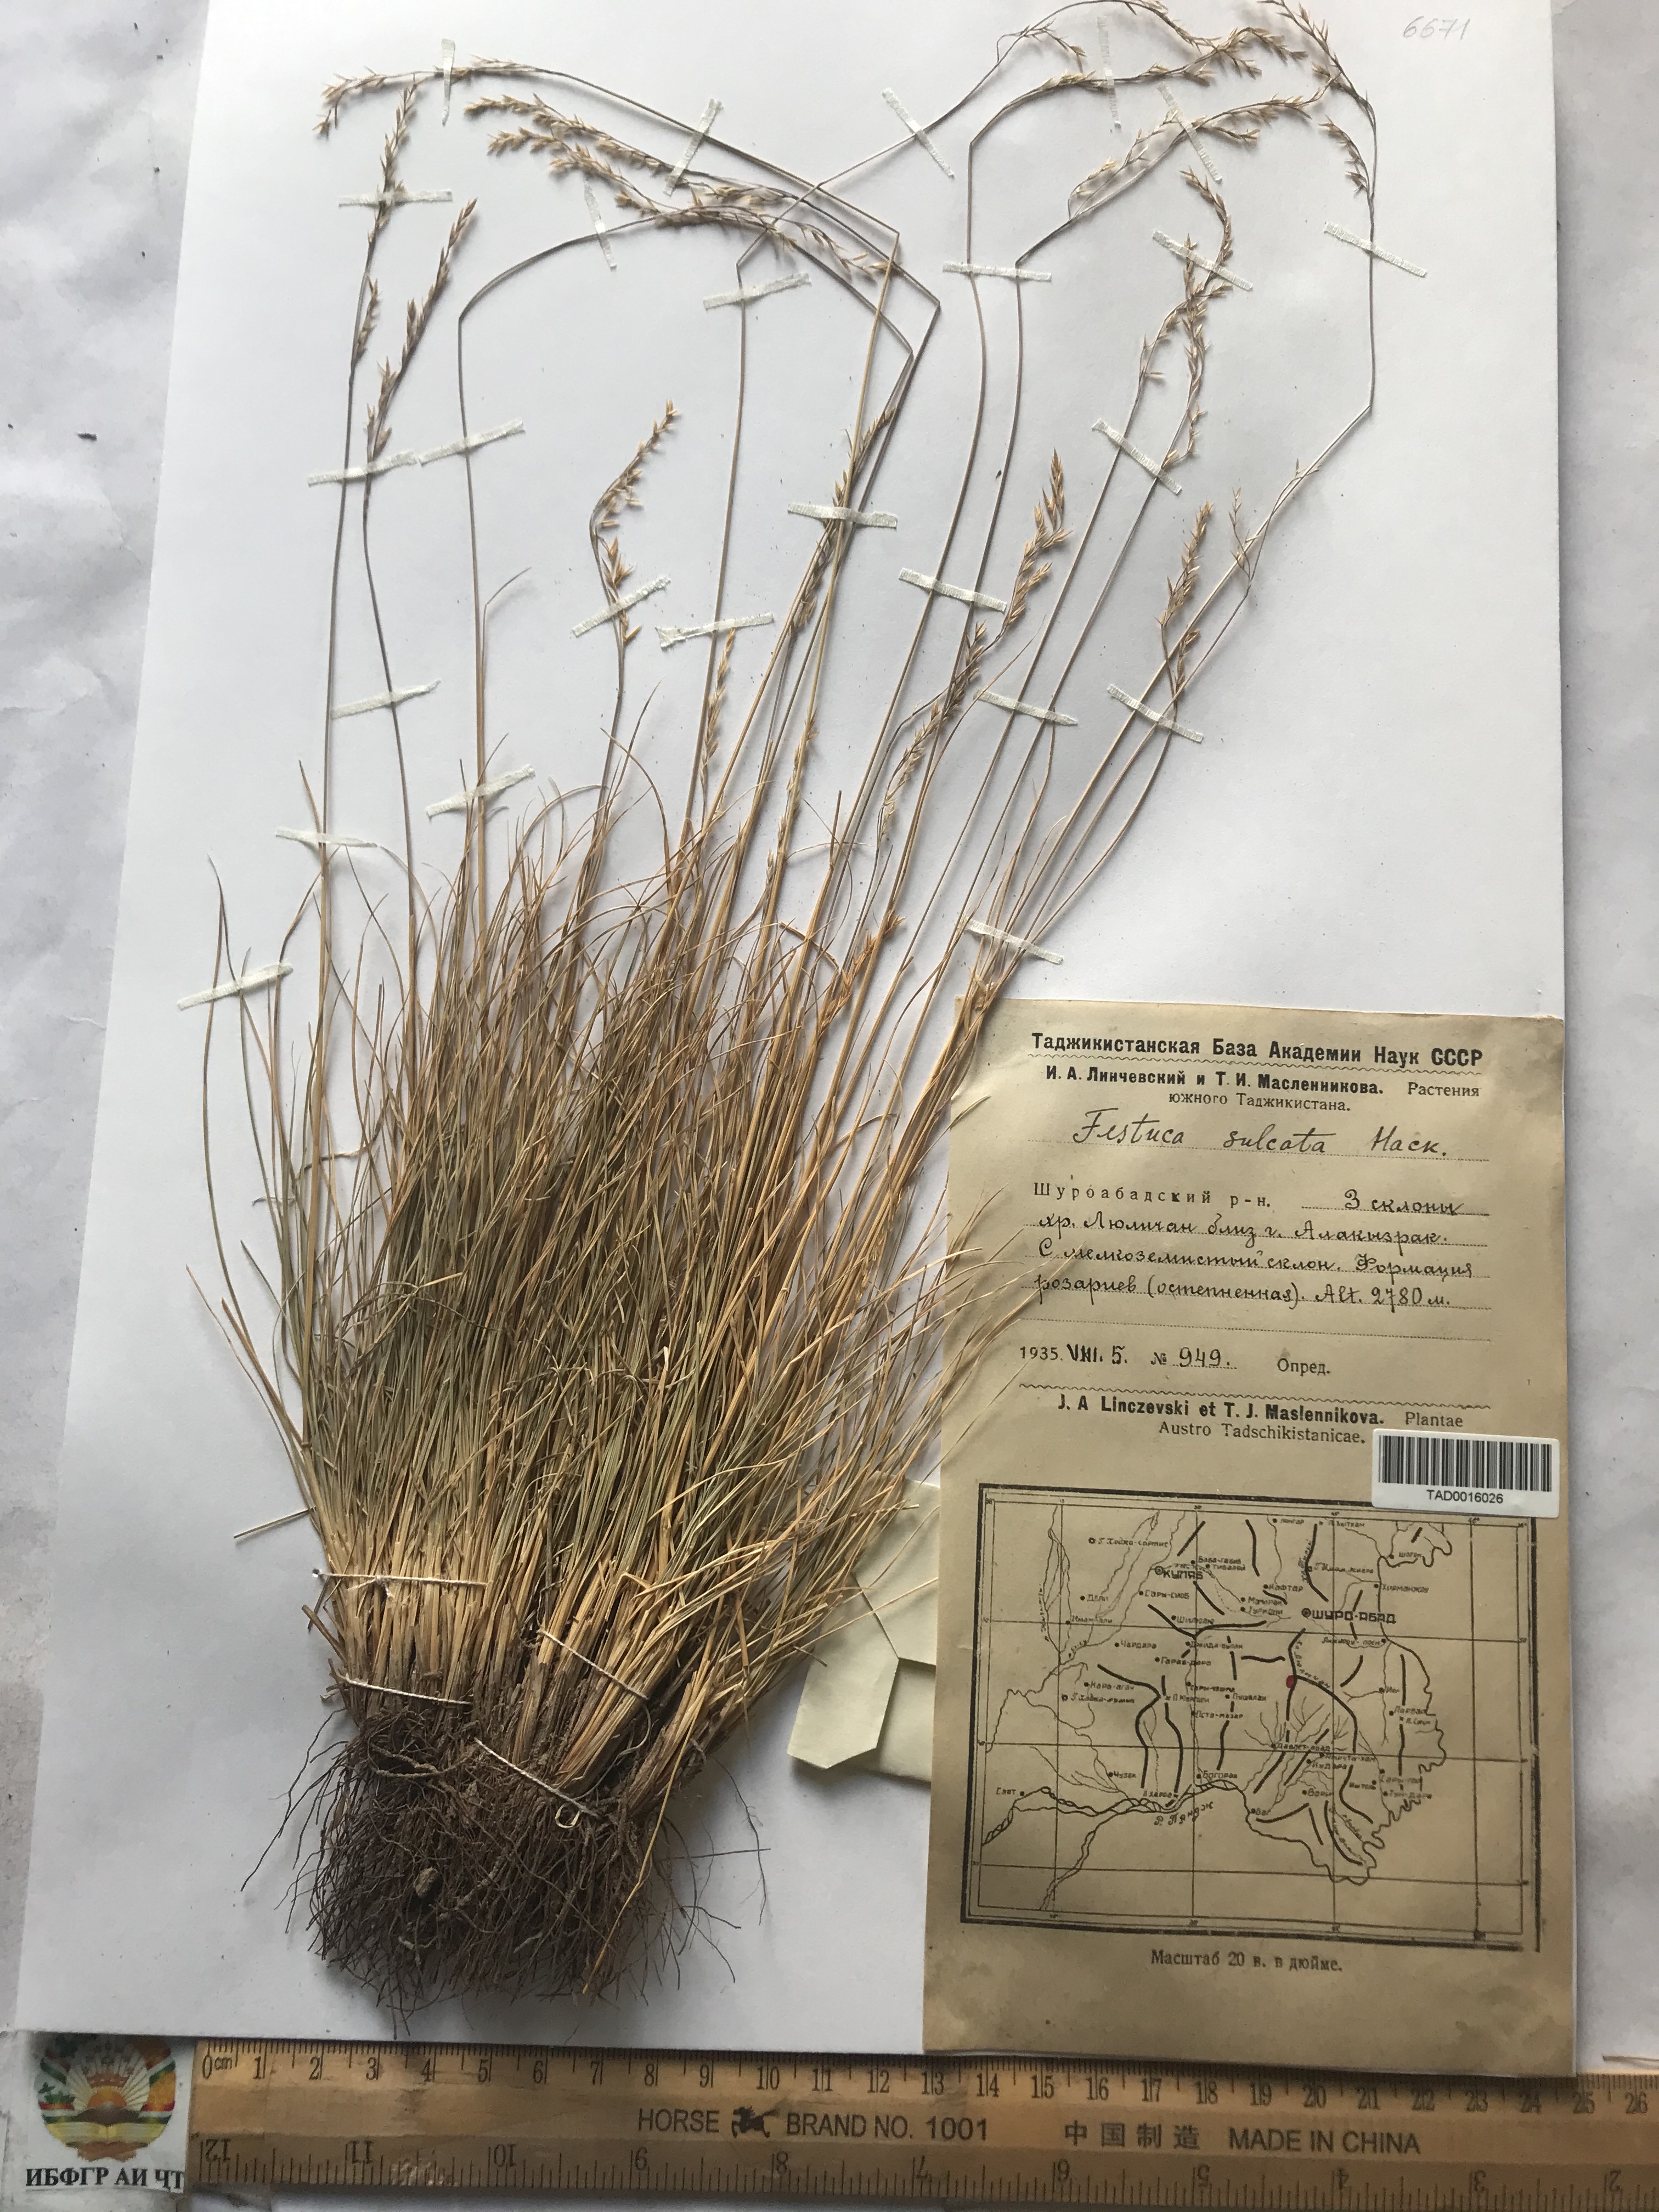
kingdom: Plantae
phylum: Tracheophyta
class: Liliopsida
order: Poales
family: Poaceae
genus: Festuca
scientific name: Festuca sulcata
